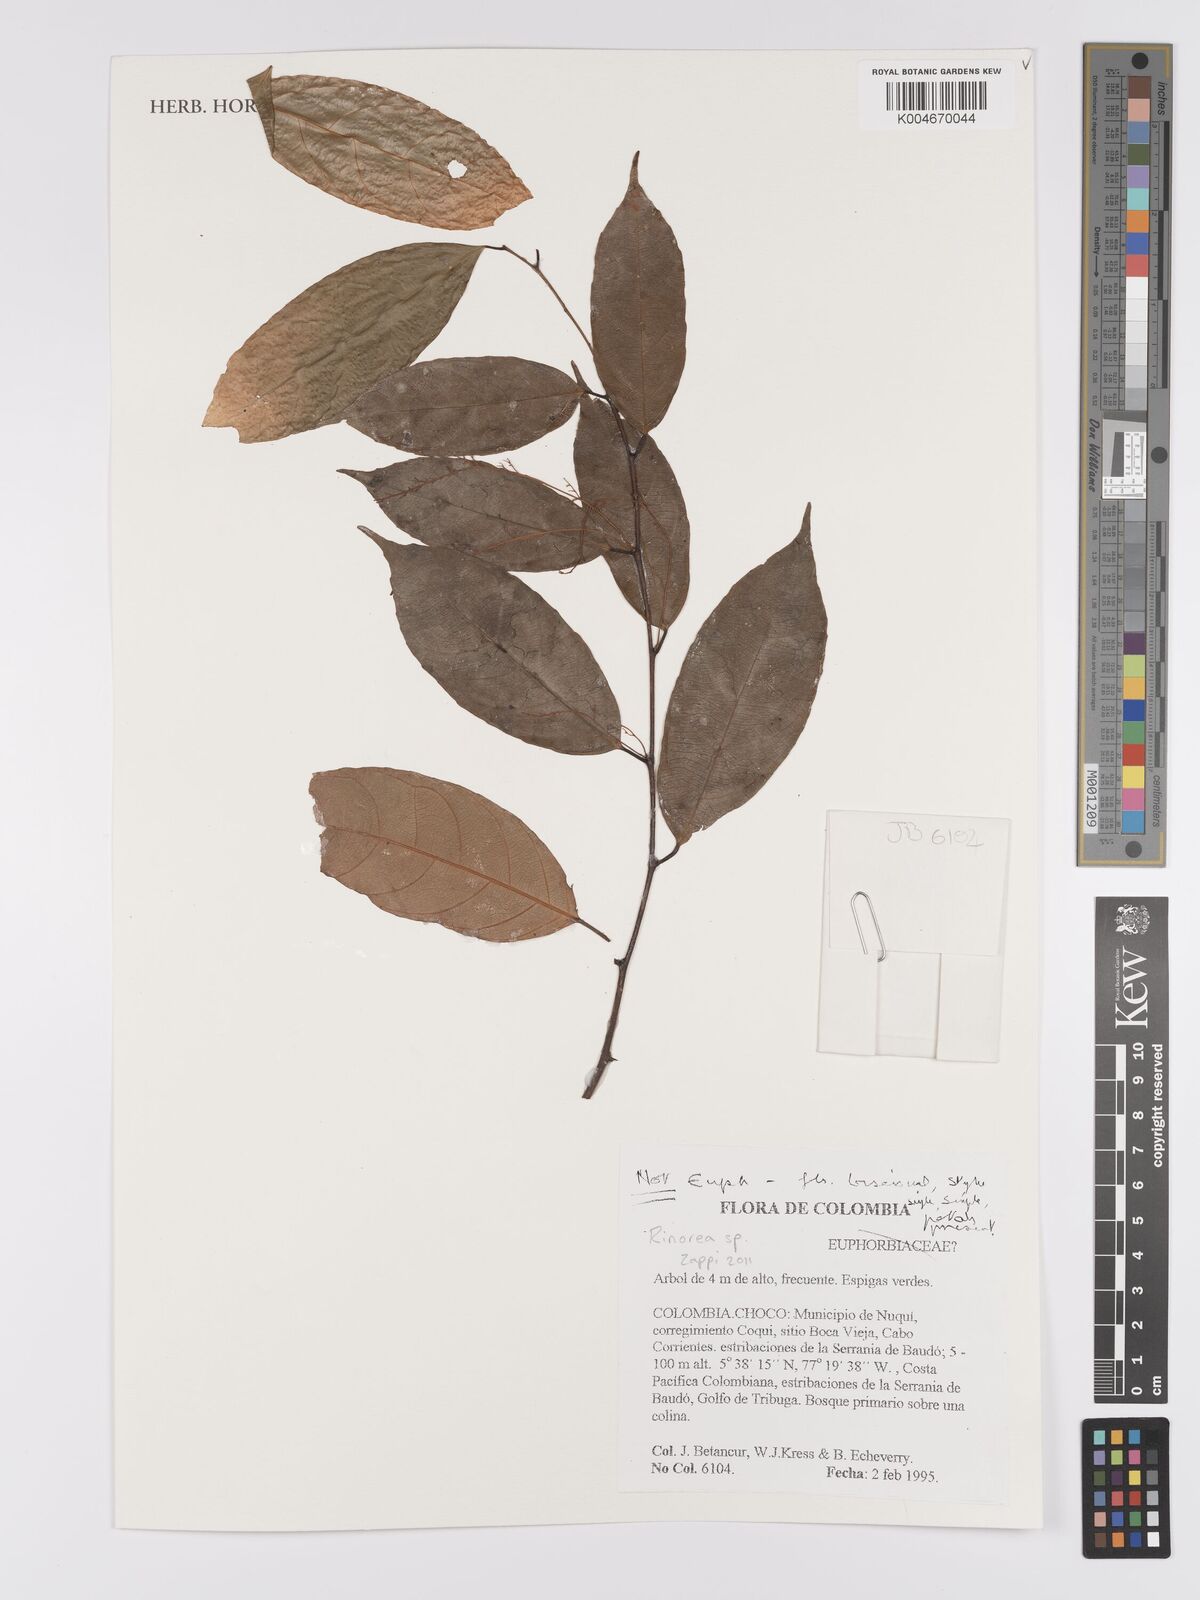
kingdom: Plantae
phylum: Tracheophyta
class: Magnoliopsida
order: Malpighiales
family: Violaceae
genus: Rinorea
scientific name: Rinorea
